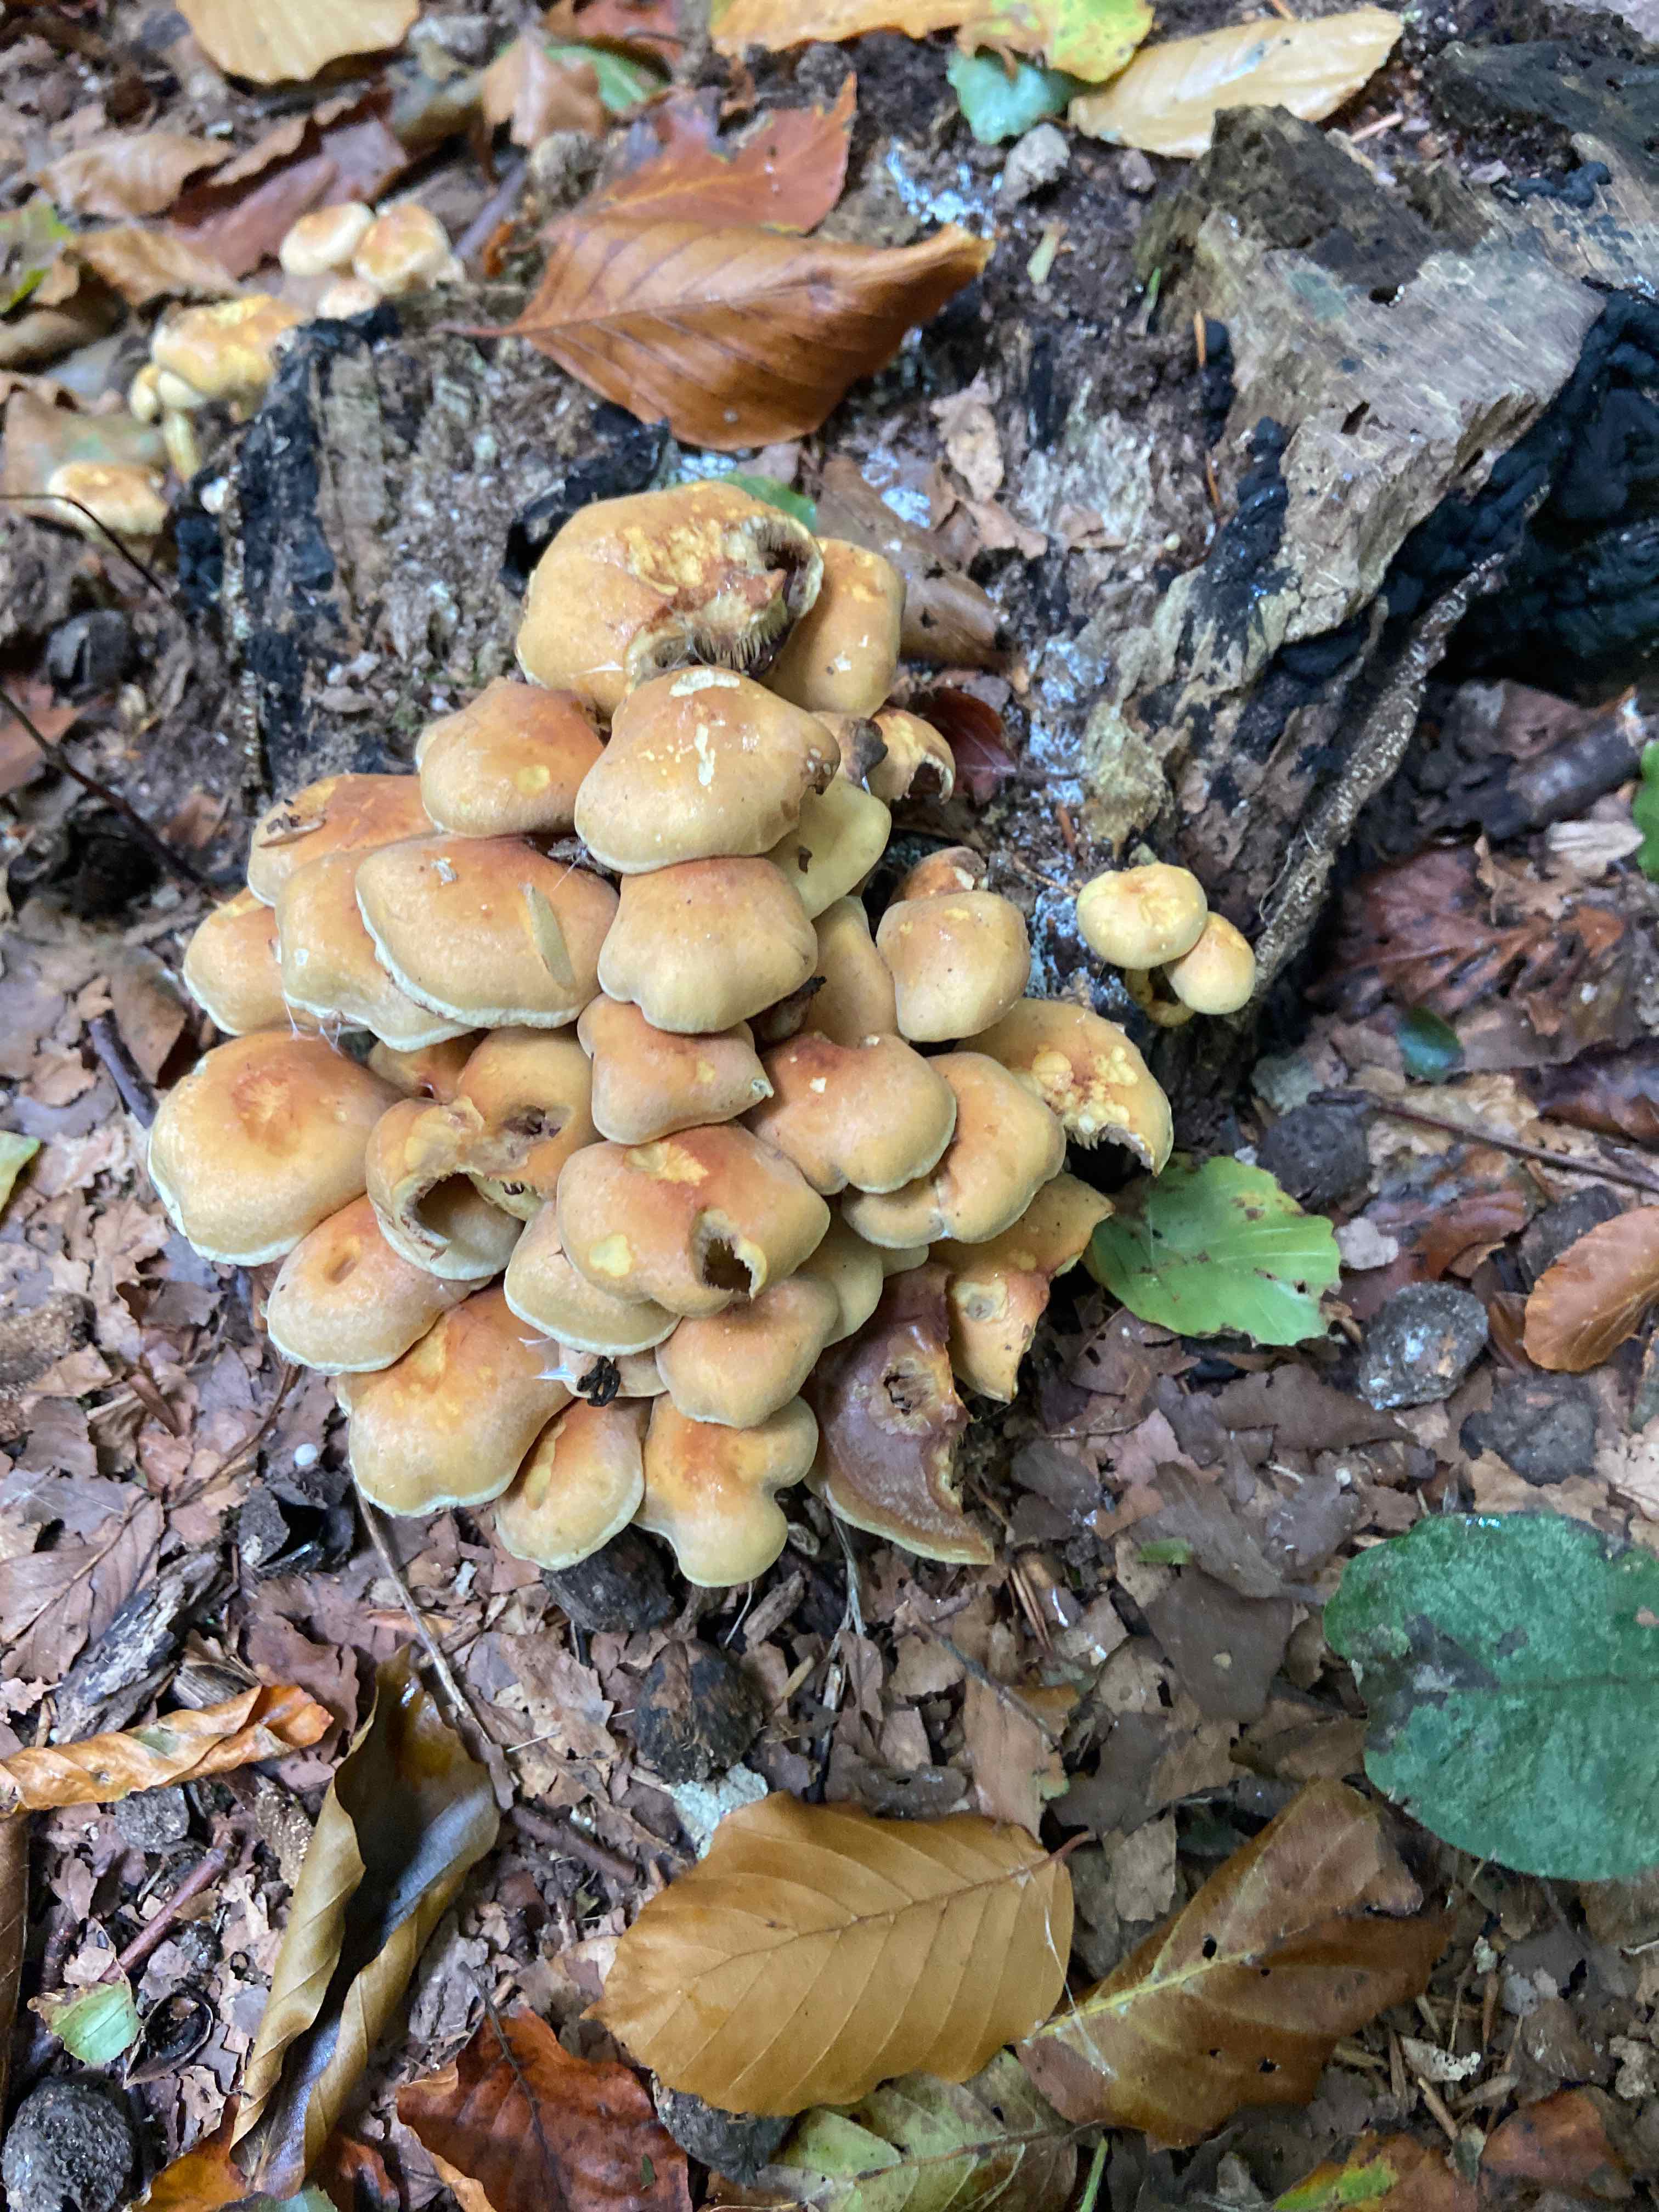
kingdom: Fungi
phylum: Basidiomycota
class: Agaricomycetes
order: Agaricales
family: Strophariaceae
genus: Hypholoma
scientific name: Hypholoma fasciculare
